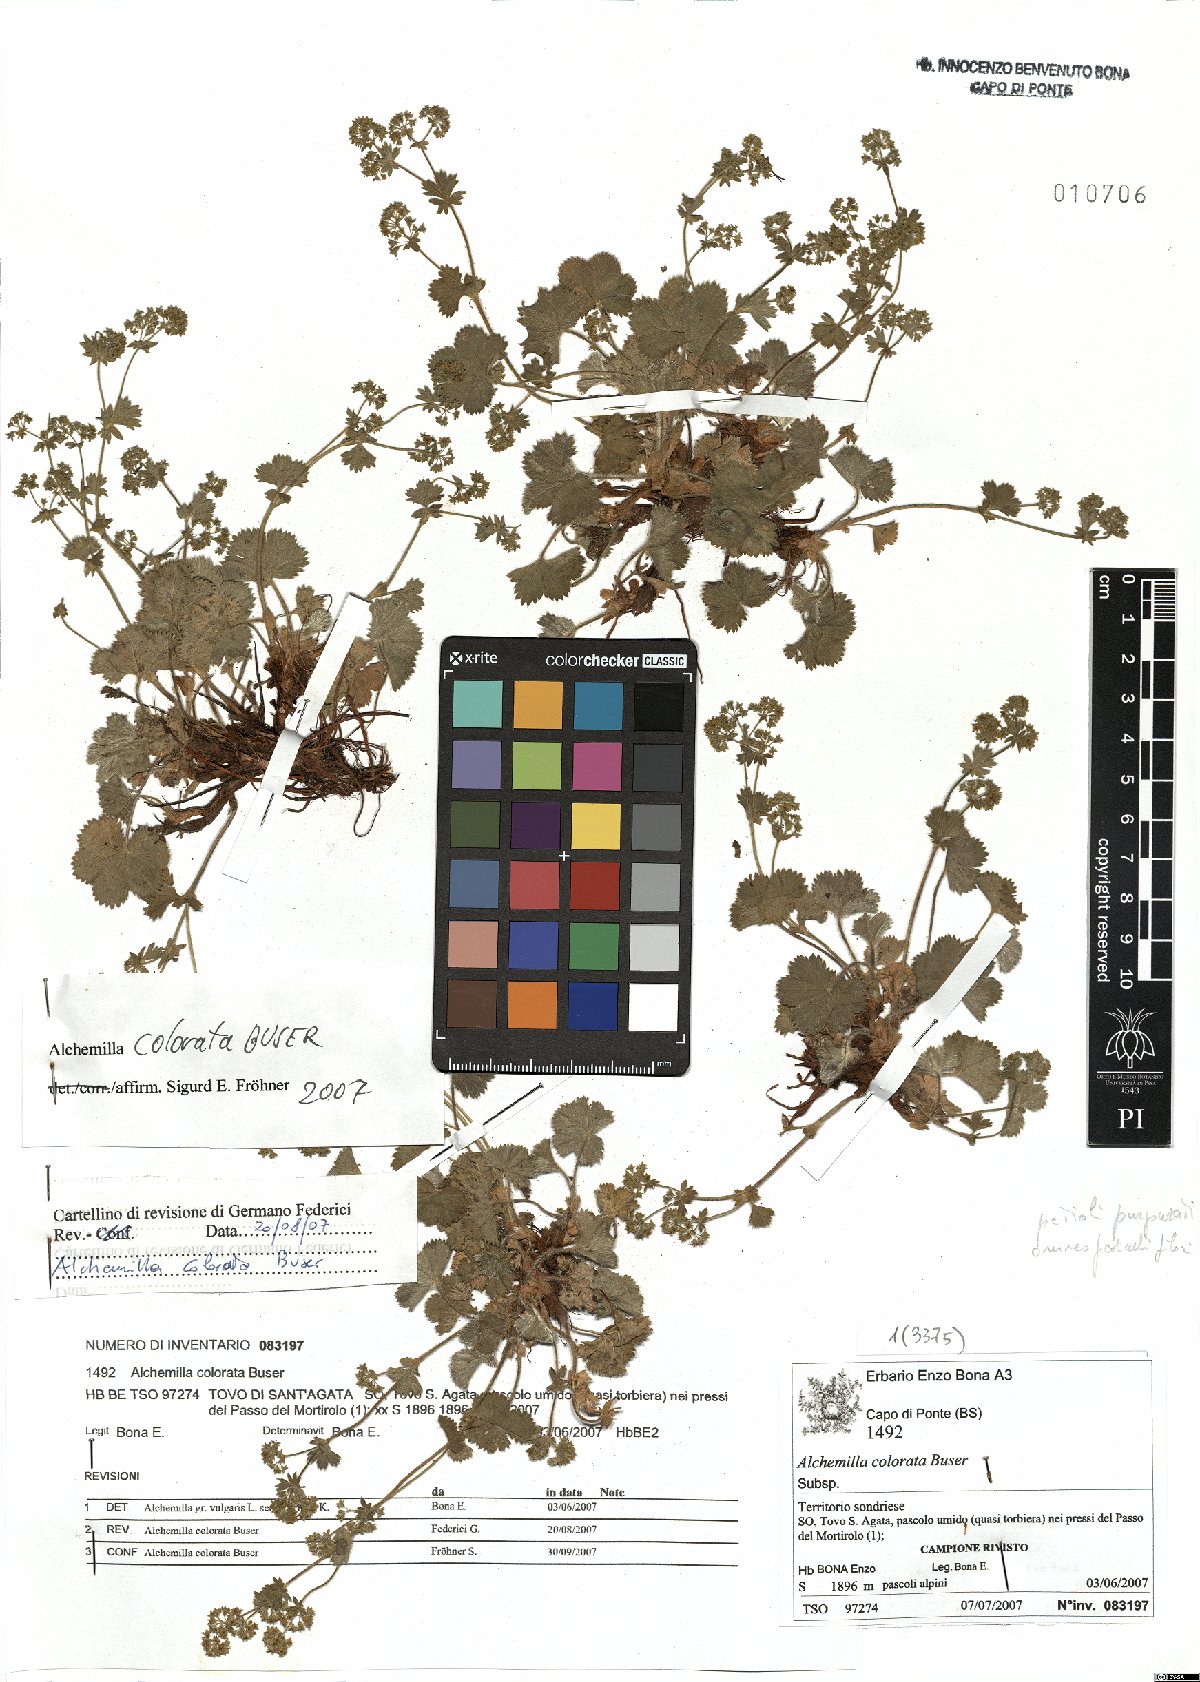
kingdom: Plantae
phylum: Tracheophyta
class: Magnoliopsida
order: Rosales
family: Rosaceae
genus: Alchemilla
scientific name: Alchemilla colorata
